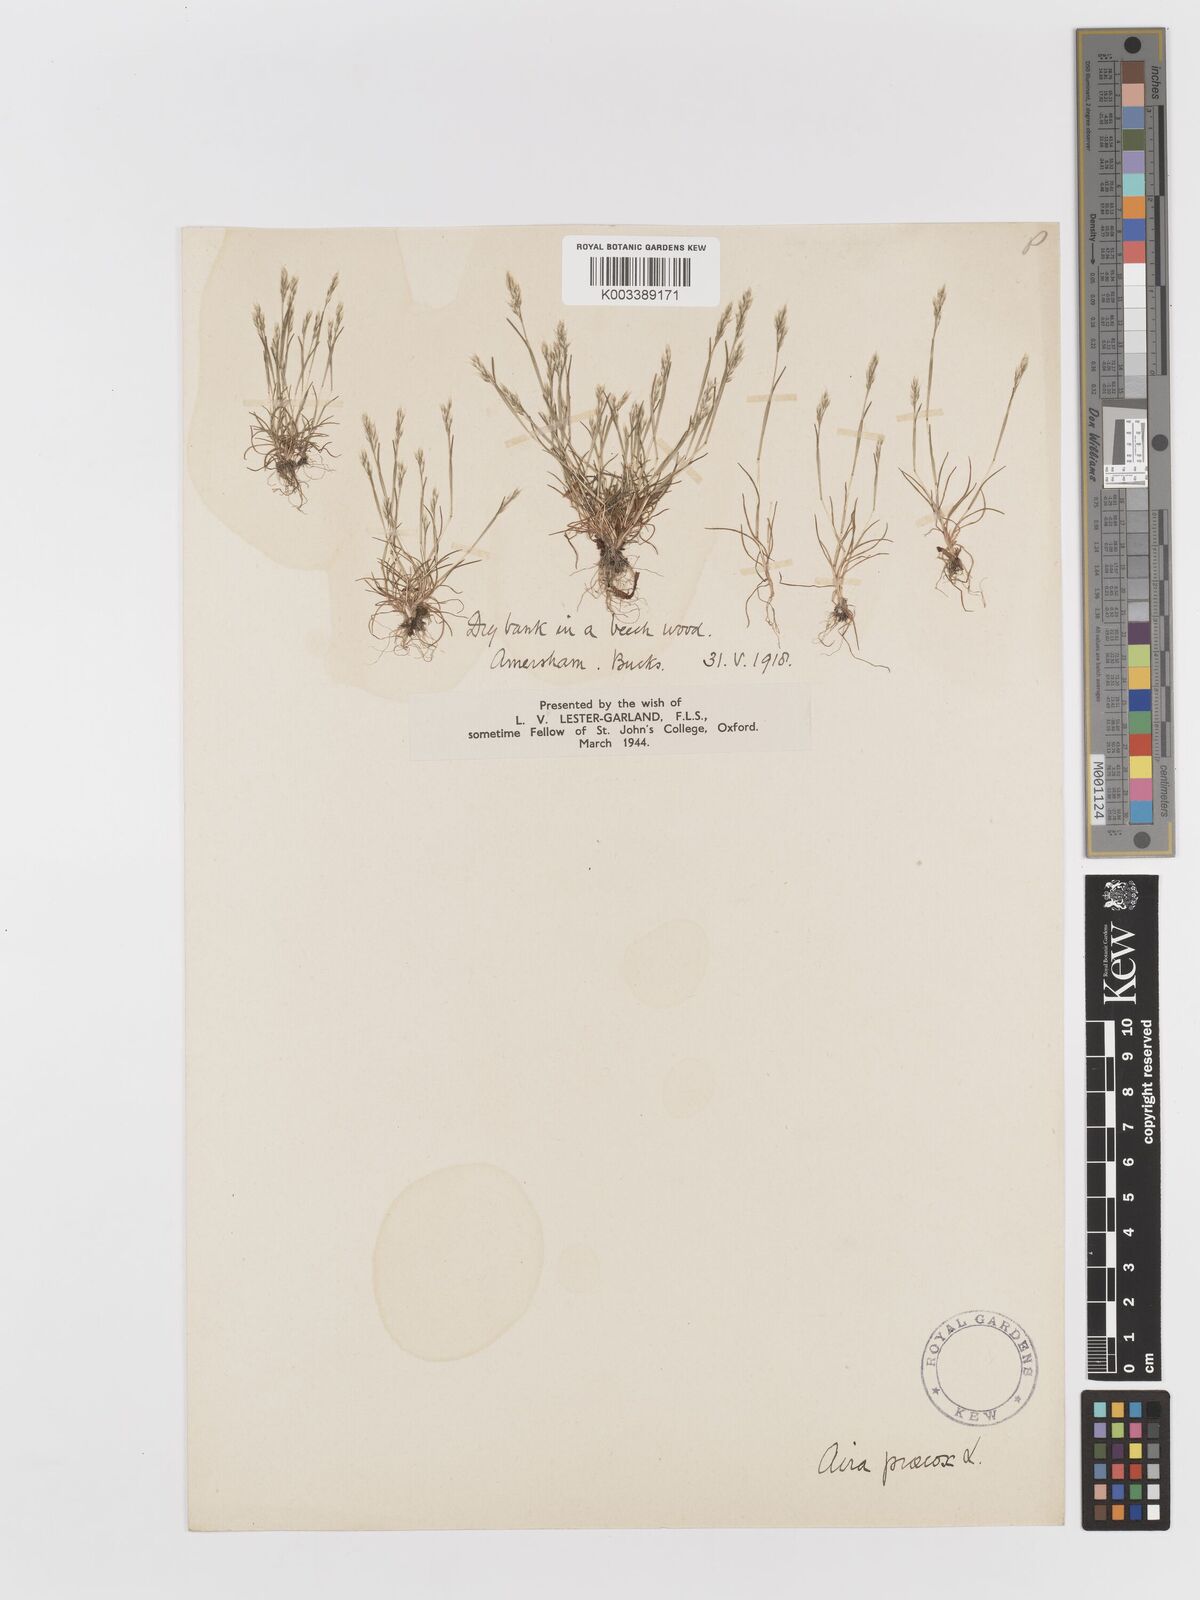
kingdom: Plantae
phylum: Tracheophyta
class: Liliopsida
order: Poales
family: Poaceae
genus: Aira
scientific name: Aira praecox
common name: Early hair-grass
